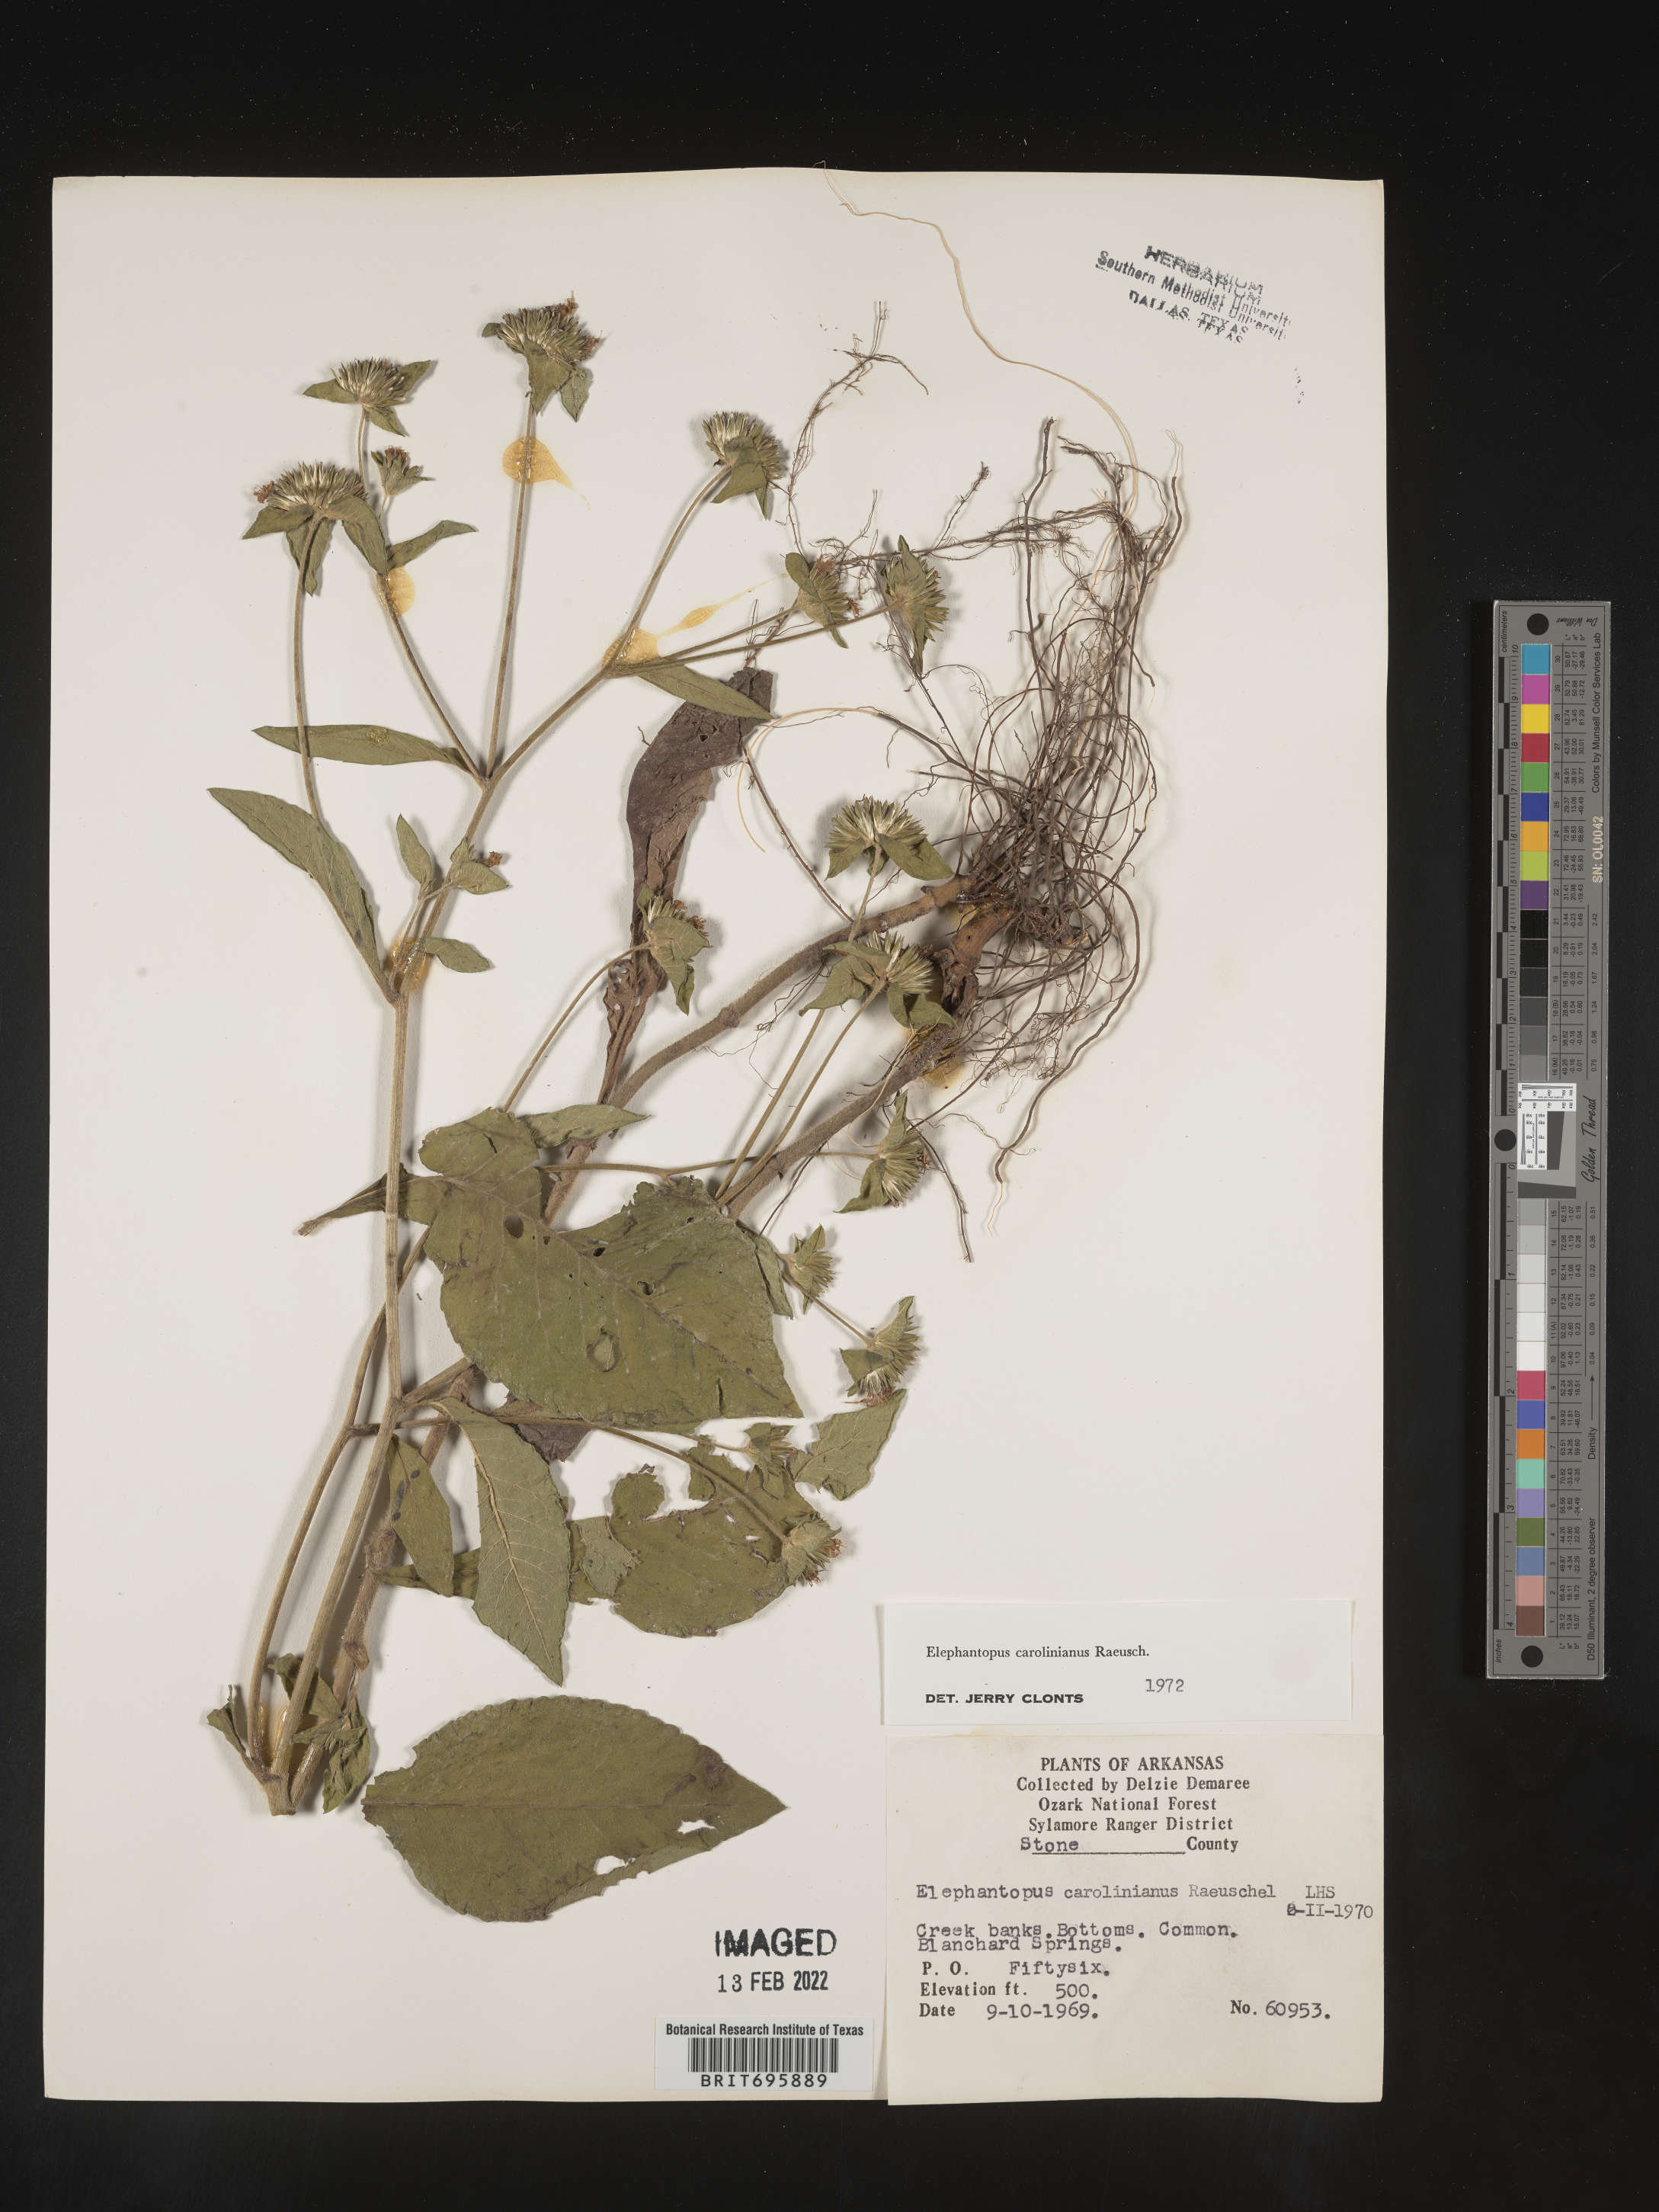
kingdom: Plantae
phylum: Tracheophyta
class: Magnoliopsida
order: Asterales
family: Asteraceae
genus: Elephantopus
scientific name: Elephantopus carolinianus
